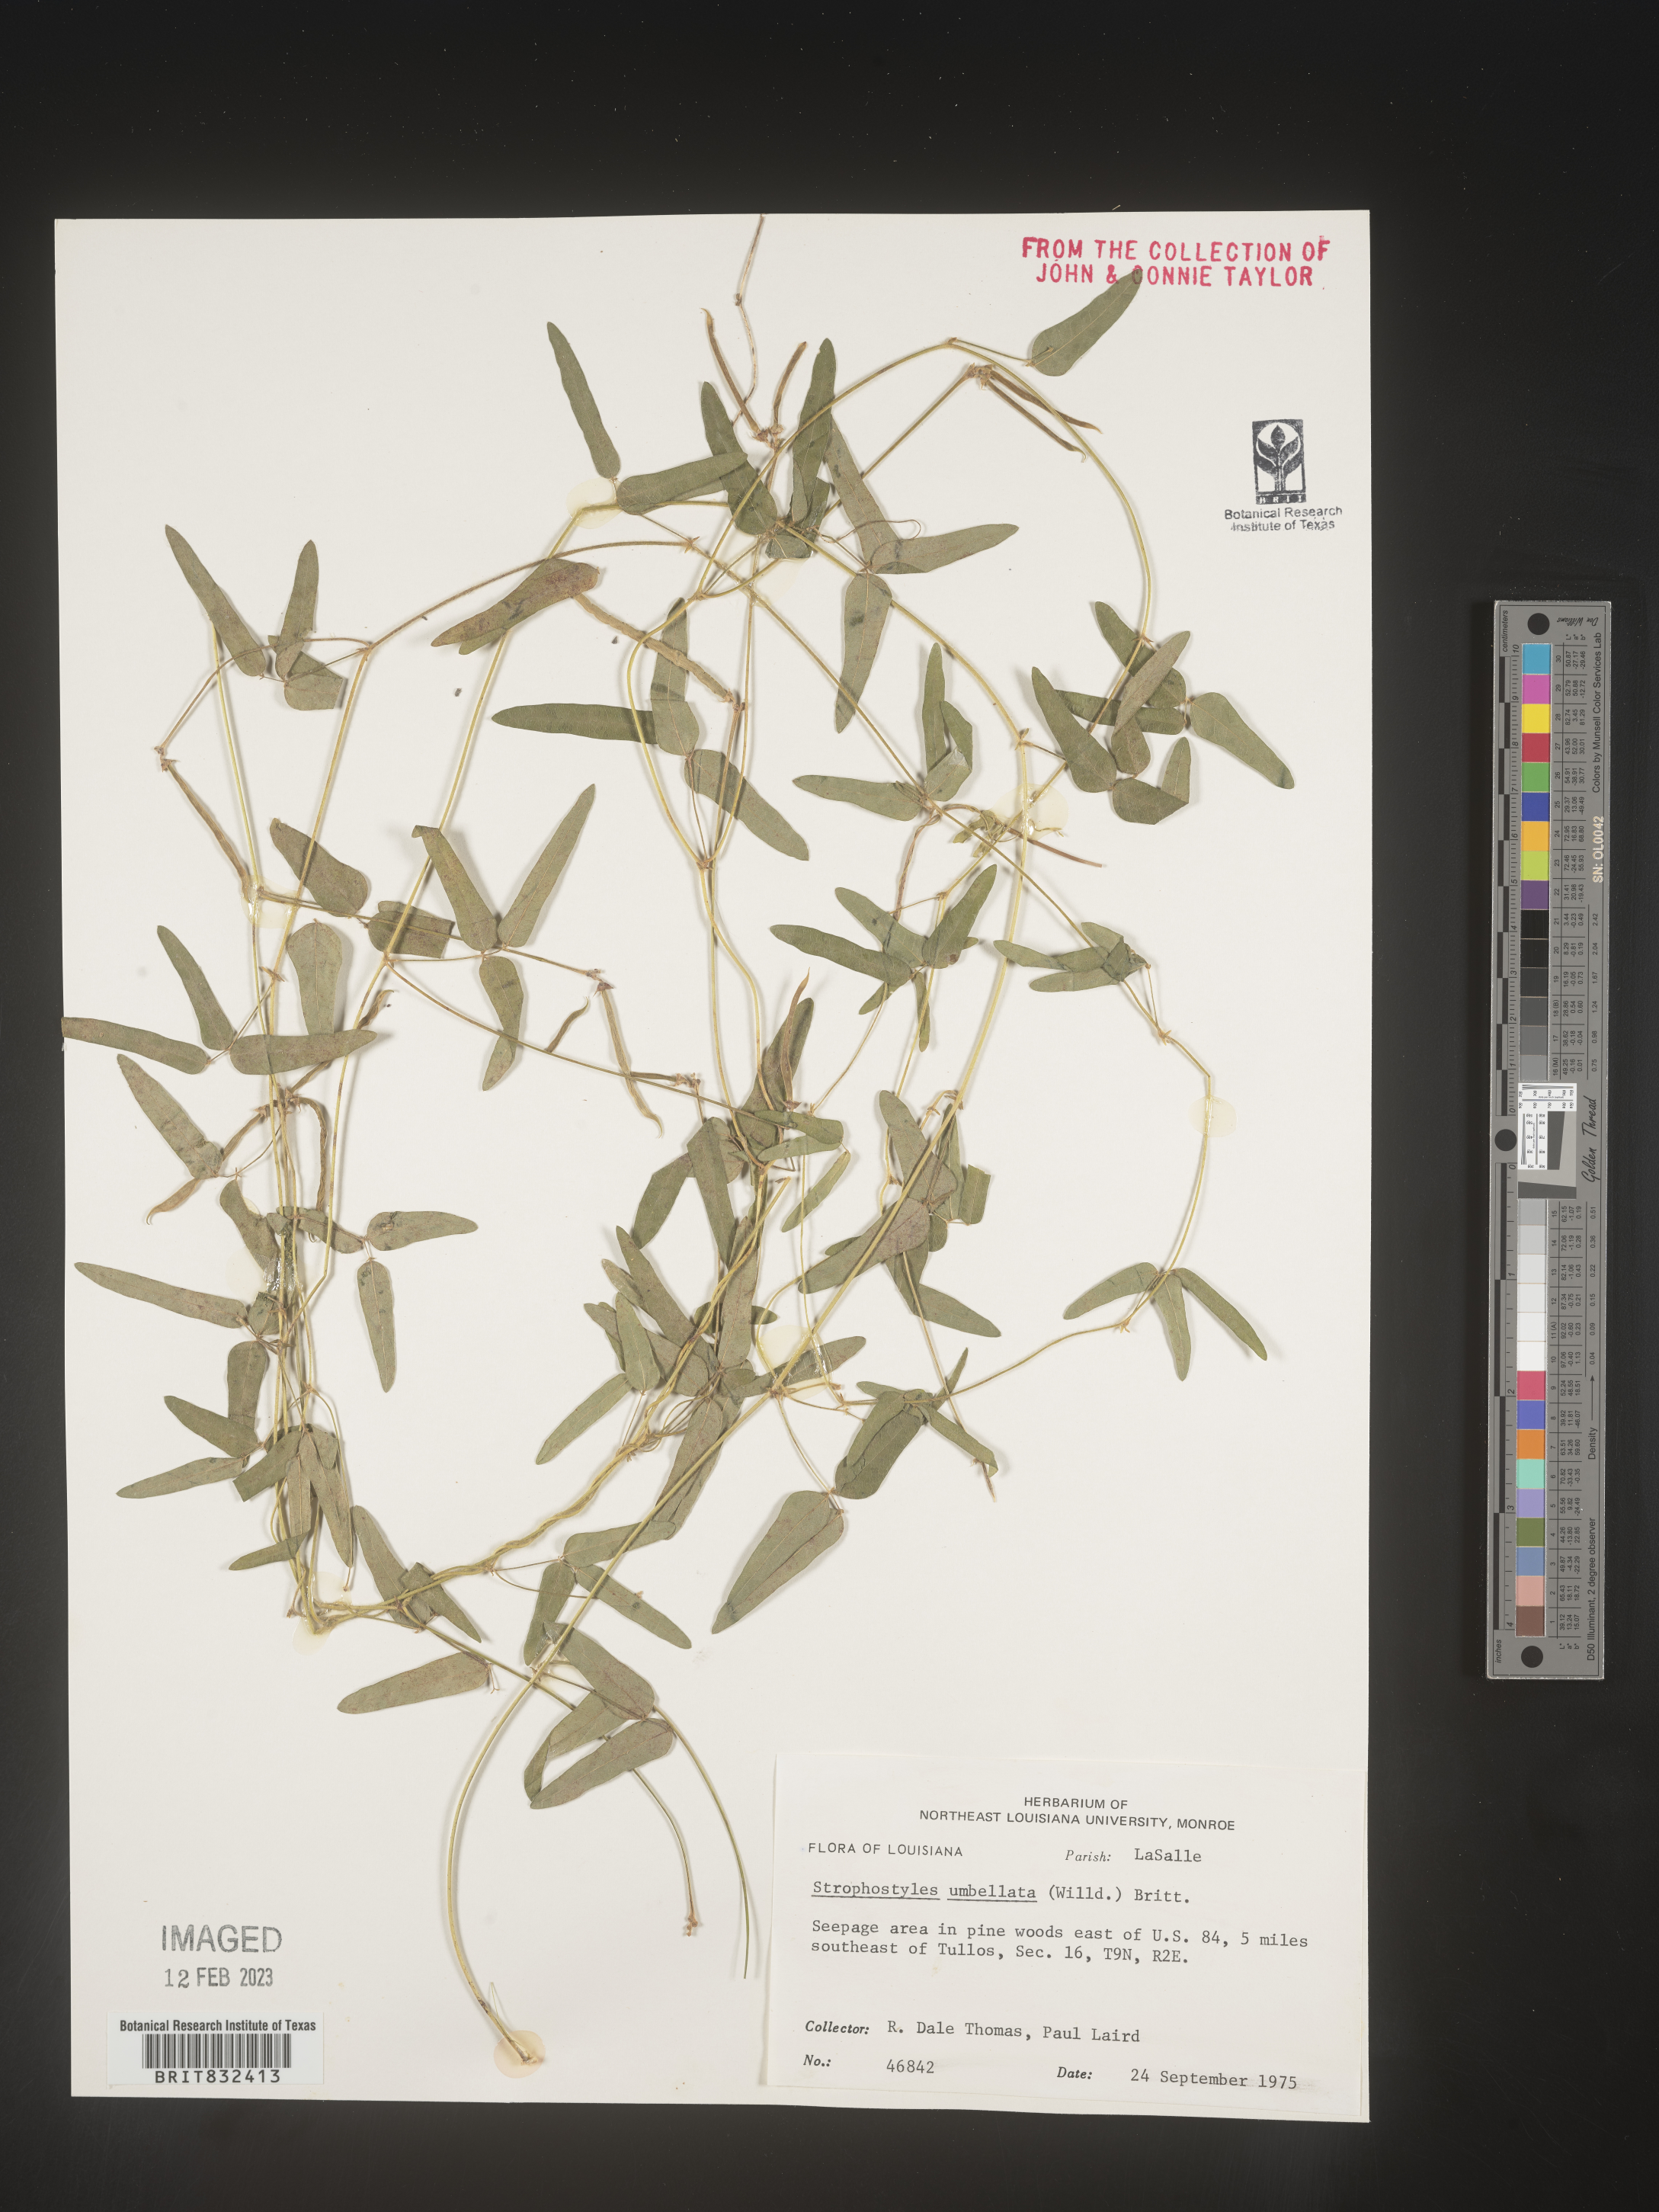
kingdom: Plantae
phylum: Tracheophyta
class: Magnoliopsida
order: Fabales
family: Fabaceae
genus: Strophostyles
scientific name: Strophostyles umbellata
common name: Perennial wild bean
